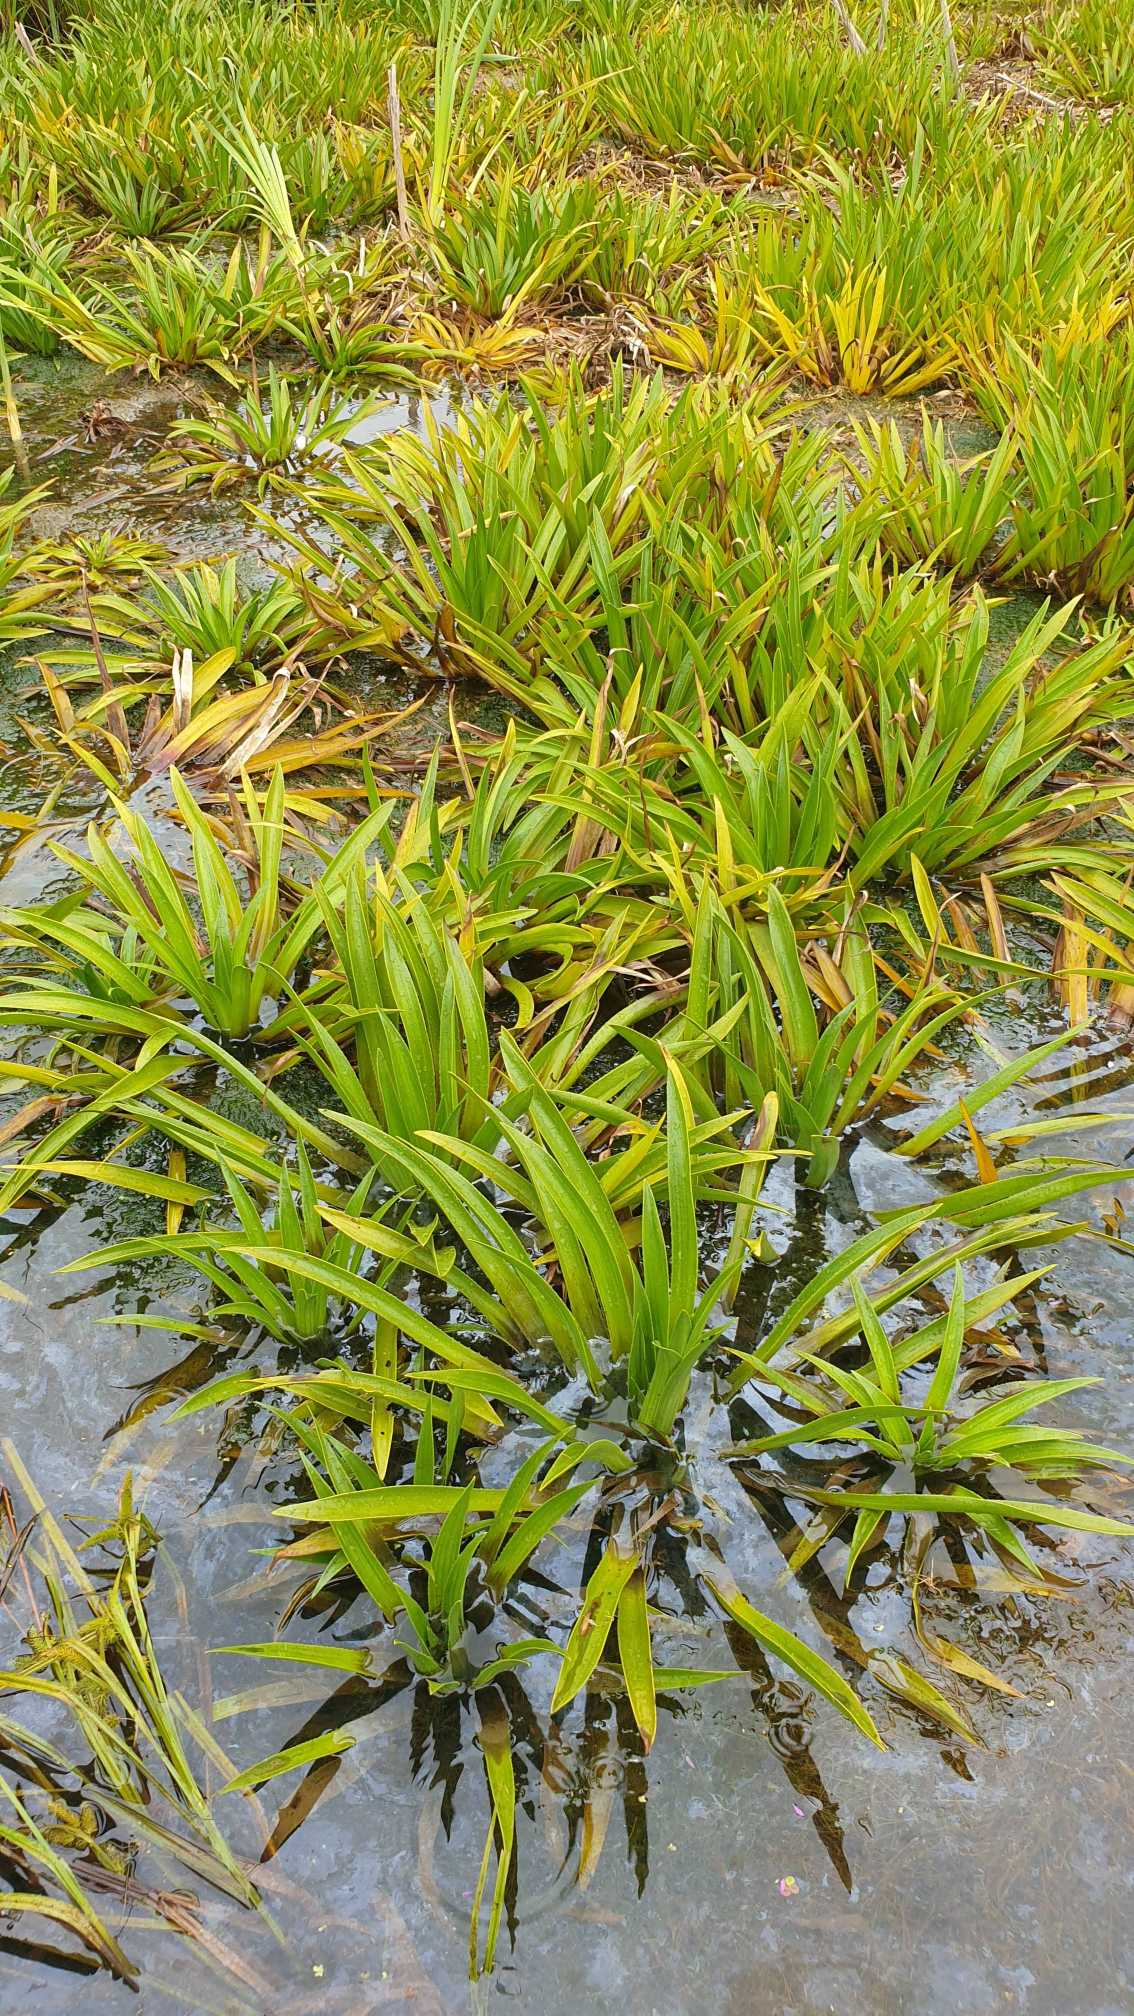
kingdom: Plantae
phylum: Tracheophyta
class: Liliopsida
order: Alismatales
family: Hydrocharitaceae
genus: Stratiotes
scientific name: Stratiotes aloides
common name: Krebseklo
